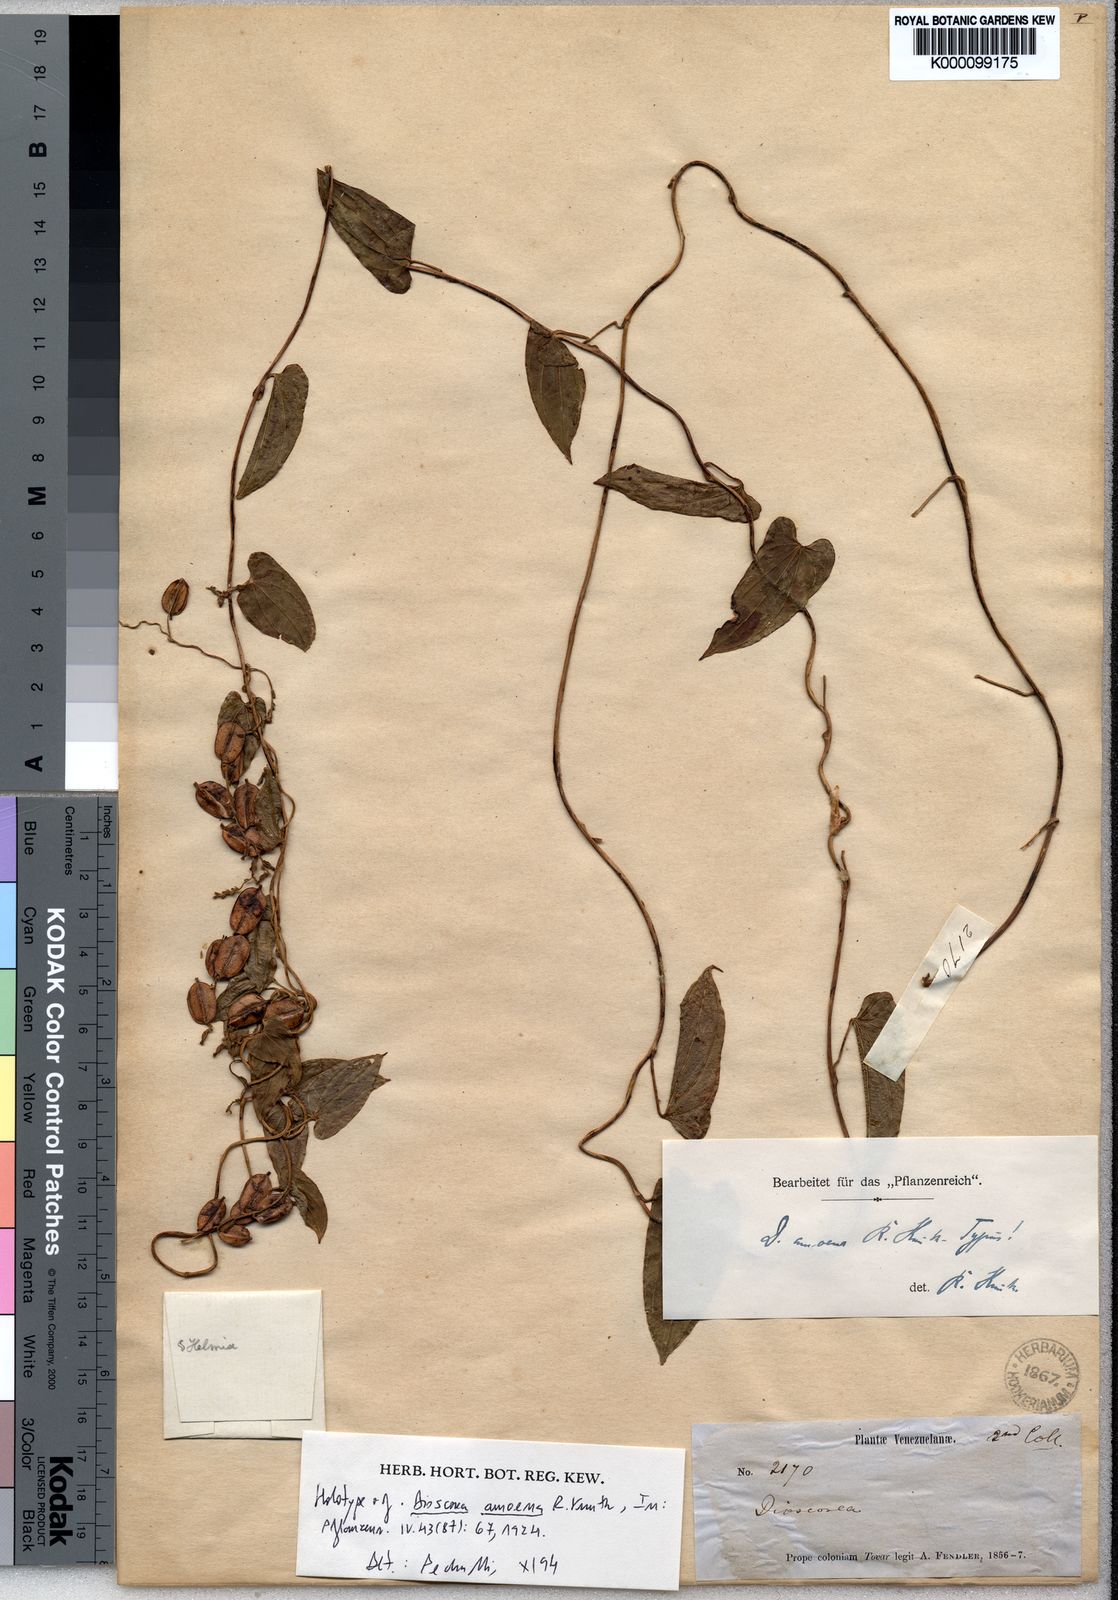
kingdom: Plantae
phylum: Tracheophyta
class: Liliopsida
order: Dioscoreales
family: Dioscoreaceae
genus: Dioscorea
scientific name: Dioscorea amoena
